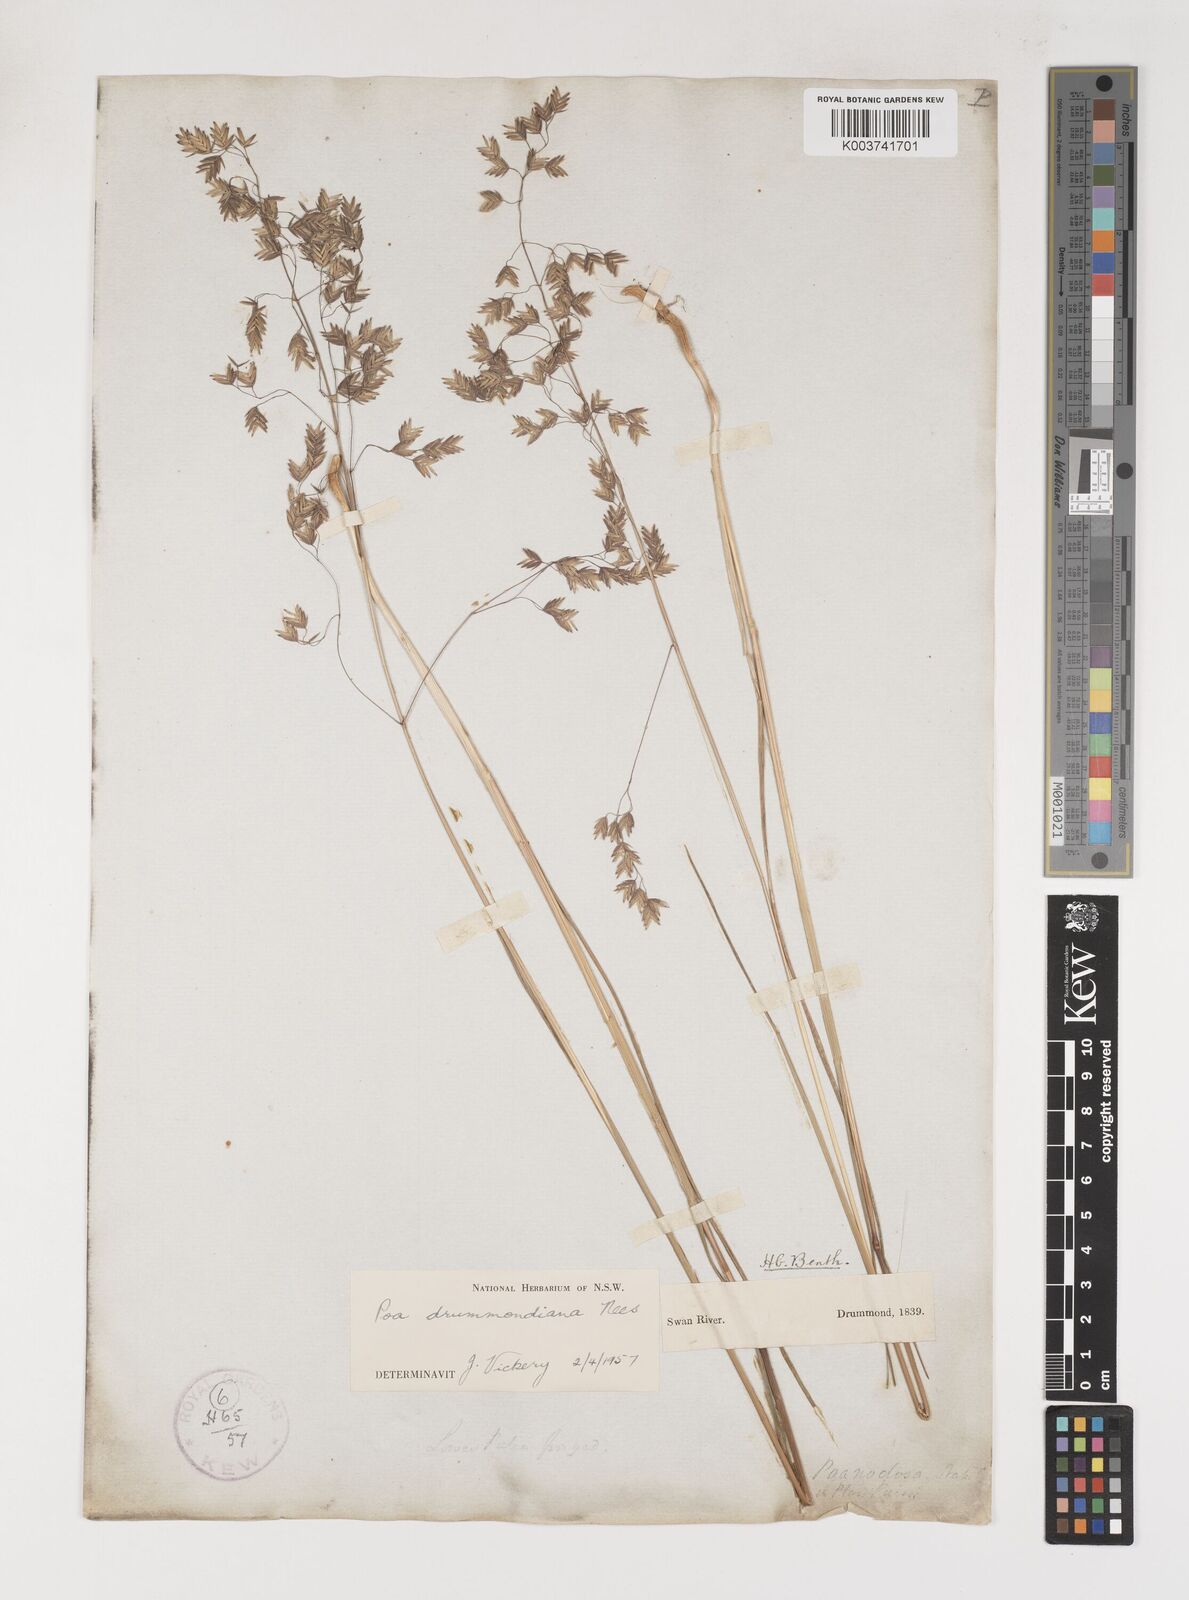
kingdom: Plantae
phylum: Tracheophyta
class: Liliopsida
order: Poales
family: Poaceae
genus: Poa
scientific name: Poa drummondiana
